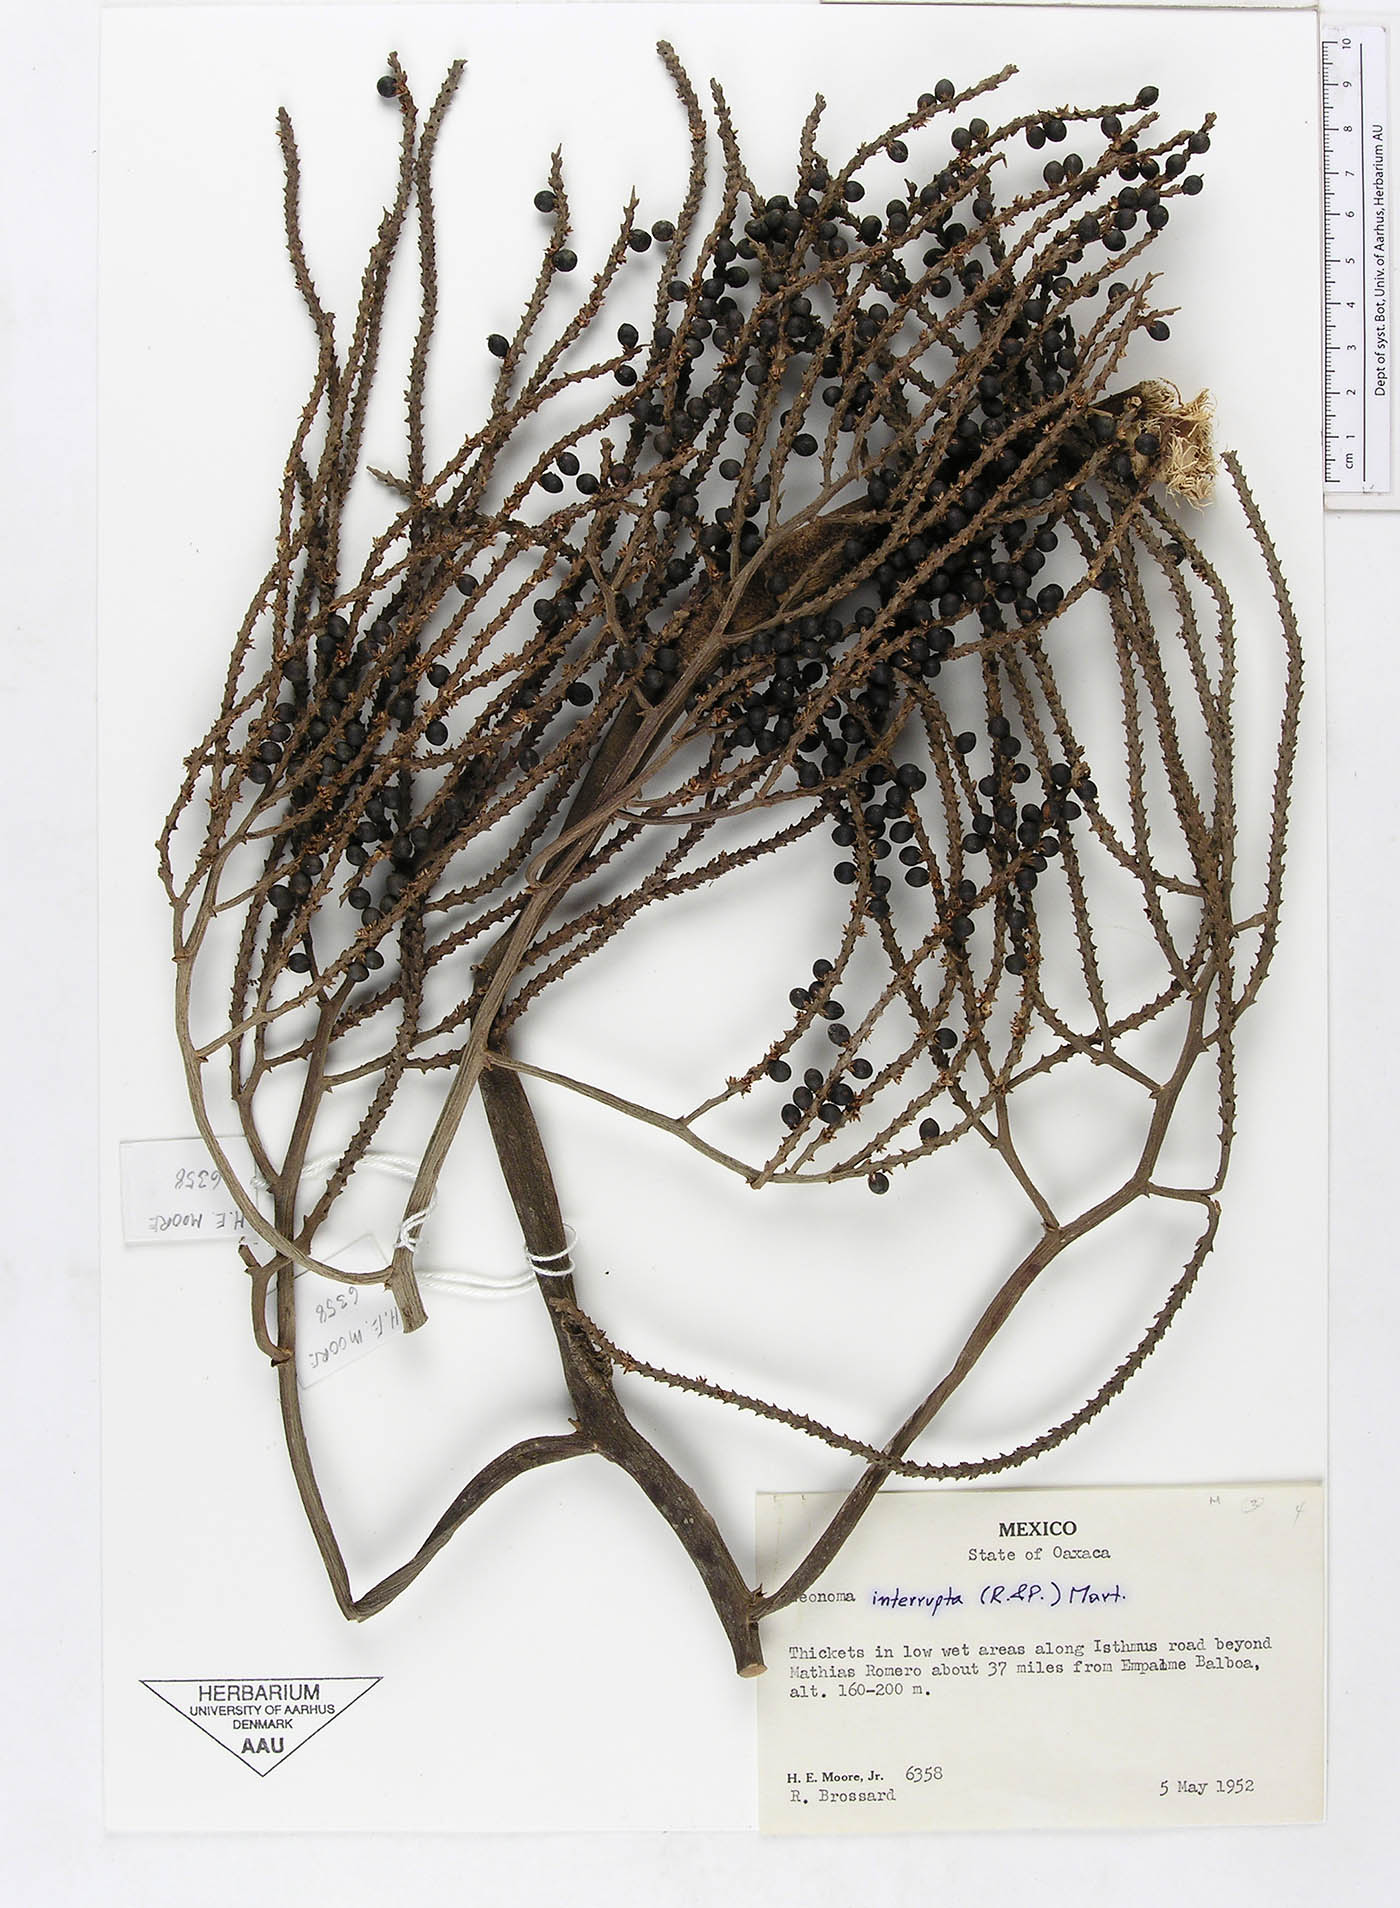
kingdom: Plantae
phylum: Tracheophyta
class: Liliopsida
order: Arecales
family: Arecaceae
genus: Geonoma
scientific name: Geonoma interrupta
